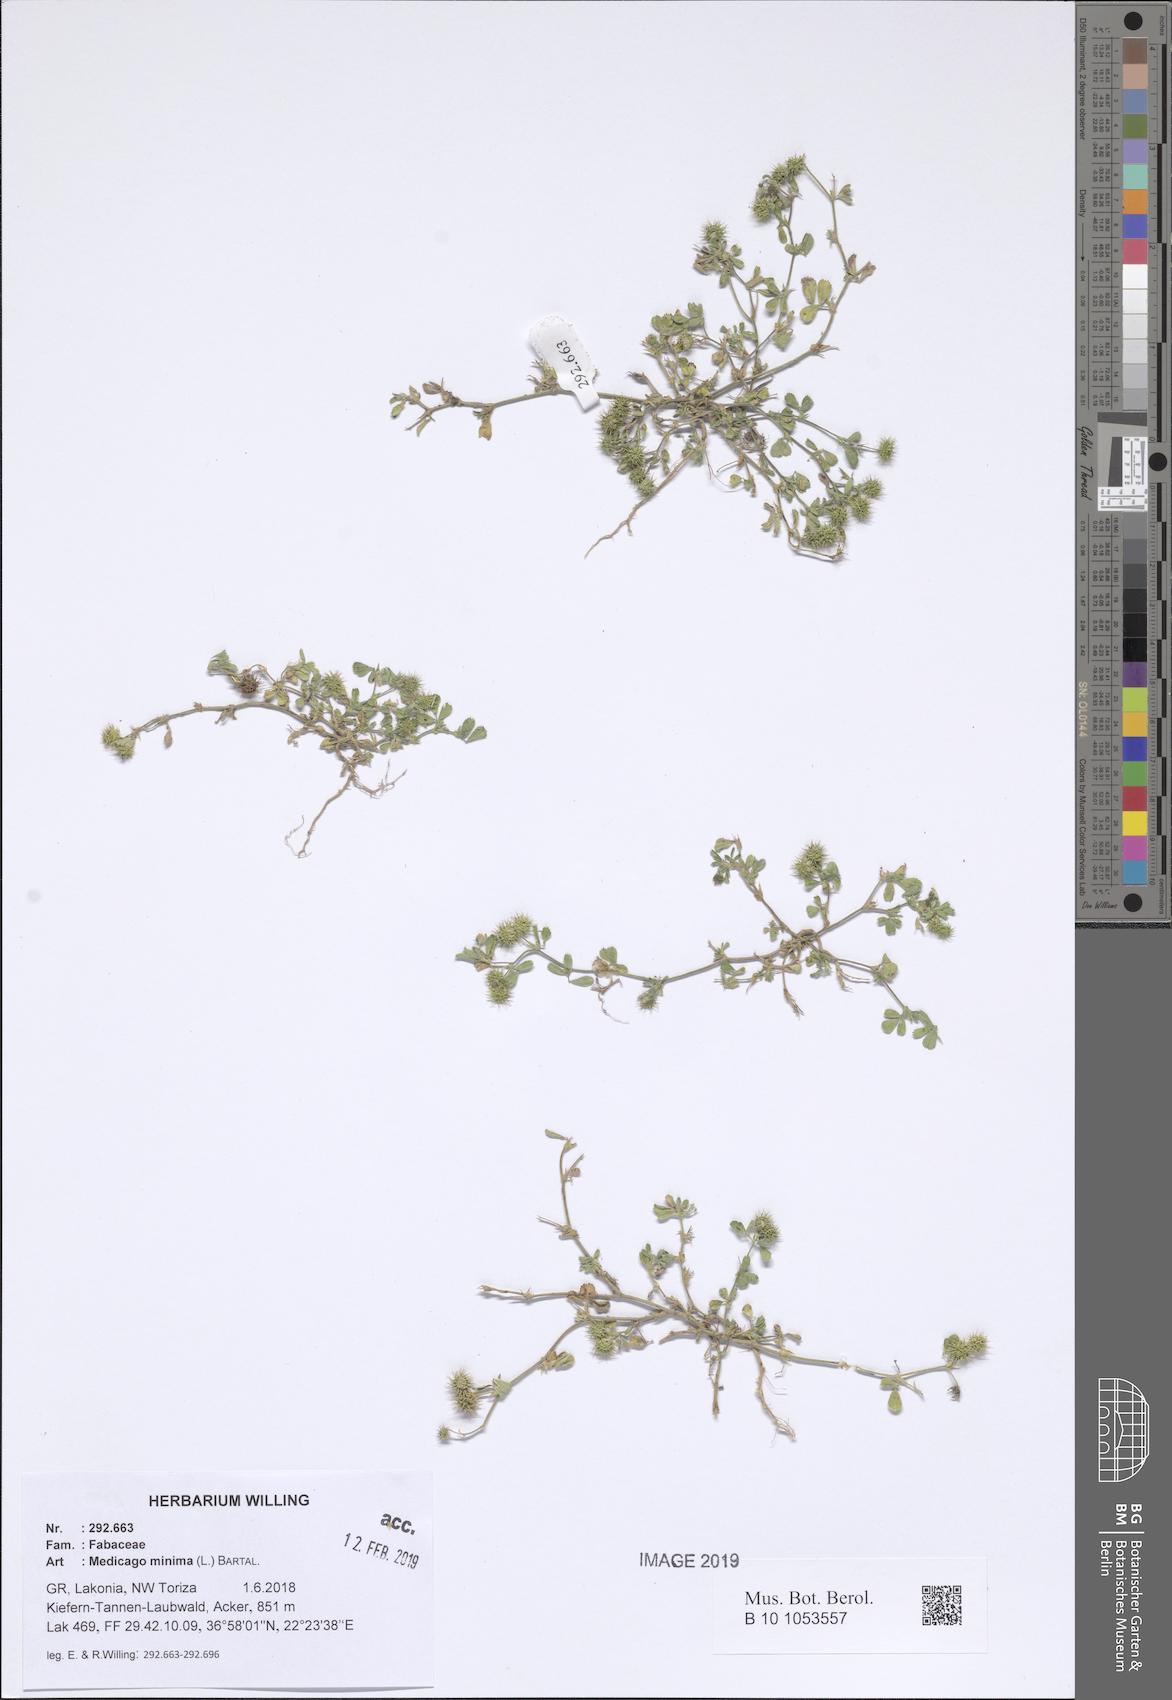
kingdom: Plantae
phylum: Tracheophyta
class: Magnoliopsida
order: Fabales
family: Fabaceae
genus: Medicago
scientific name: Medicago minima
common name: Little bur-clover
